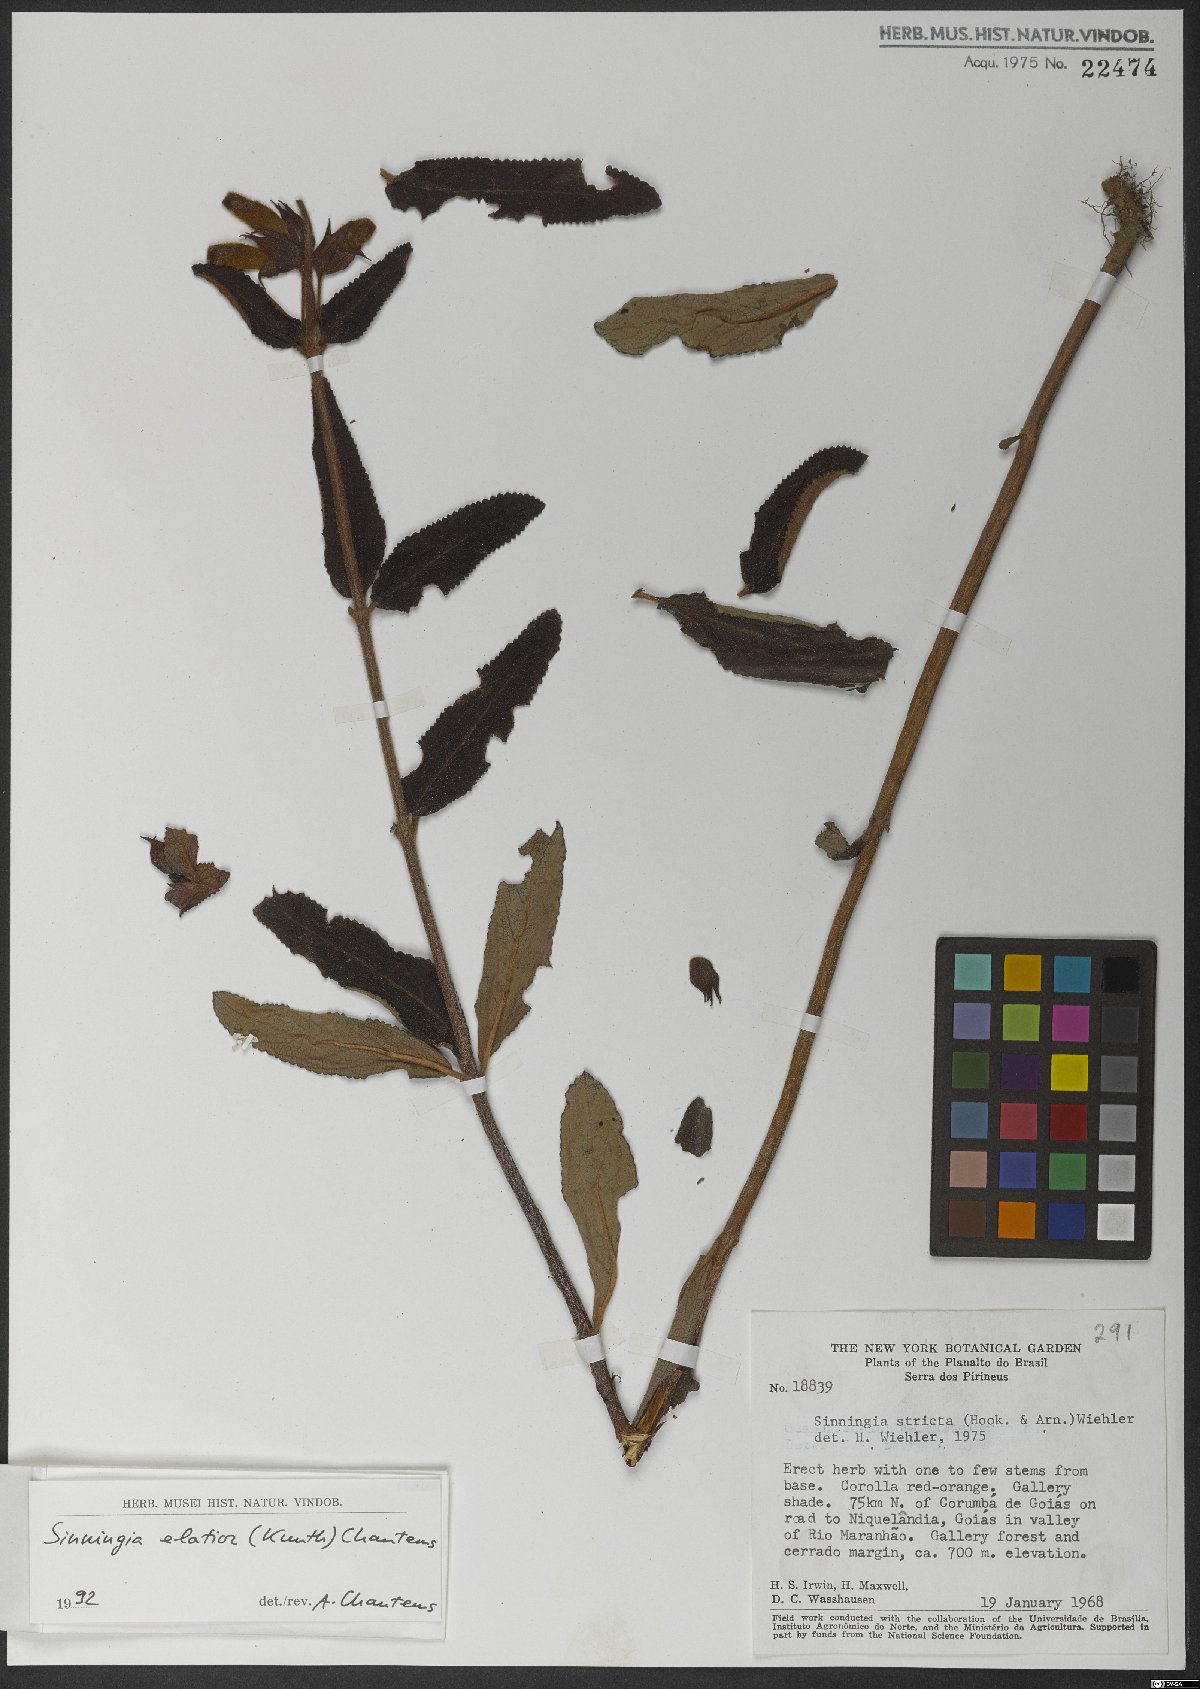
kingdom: Plantae
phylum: Tracheophyta
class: Magnoliopsida
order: Lamiales
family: Gesneriaceae
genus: Sinningia
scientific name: Sinningia elatior
